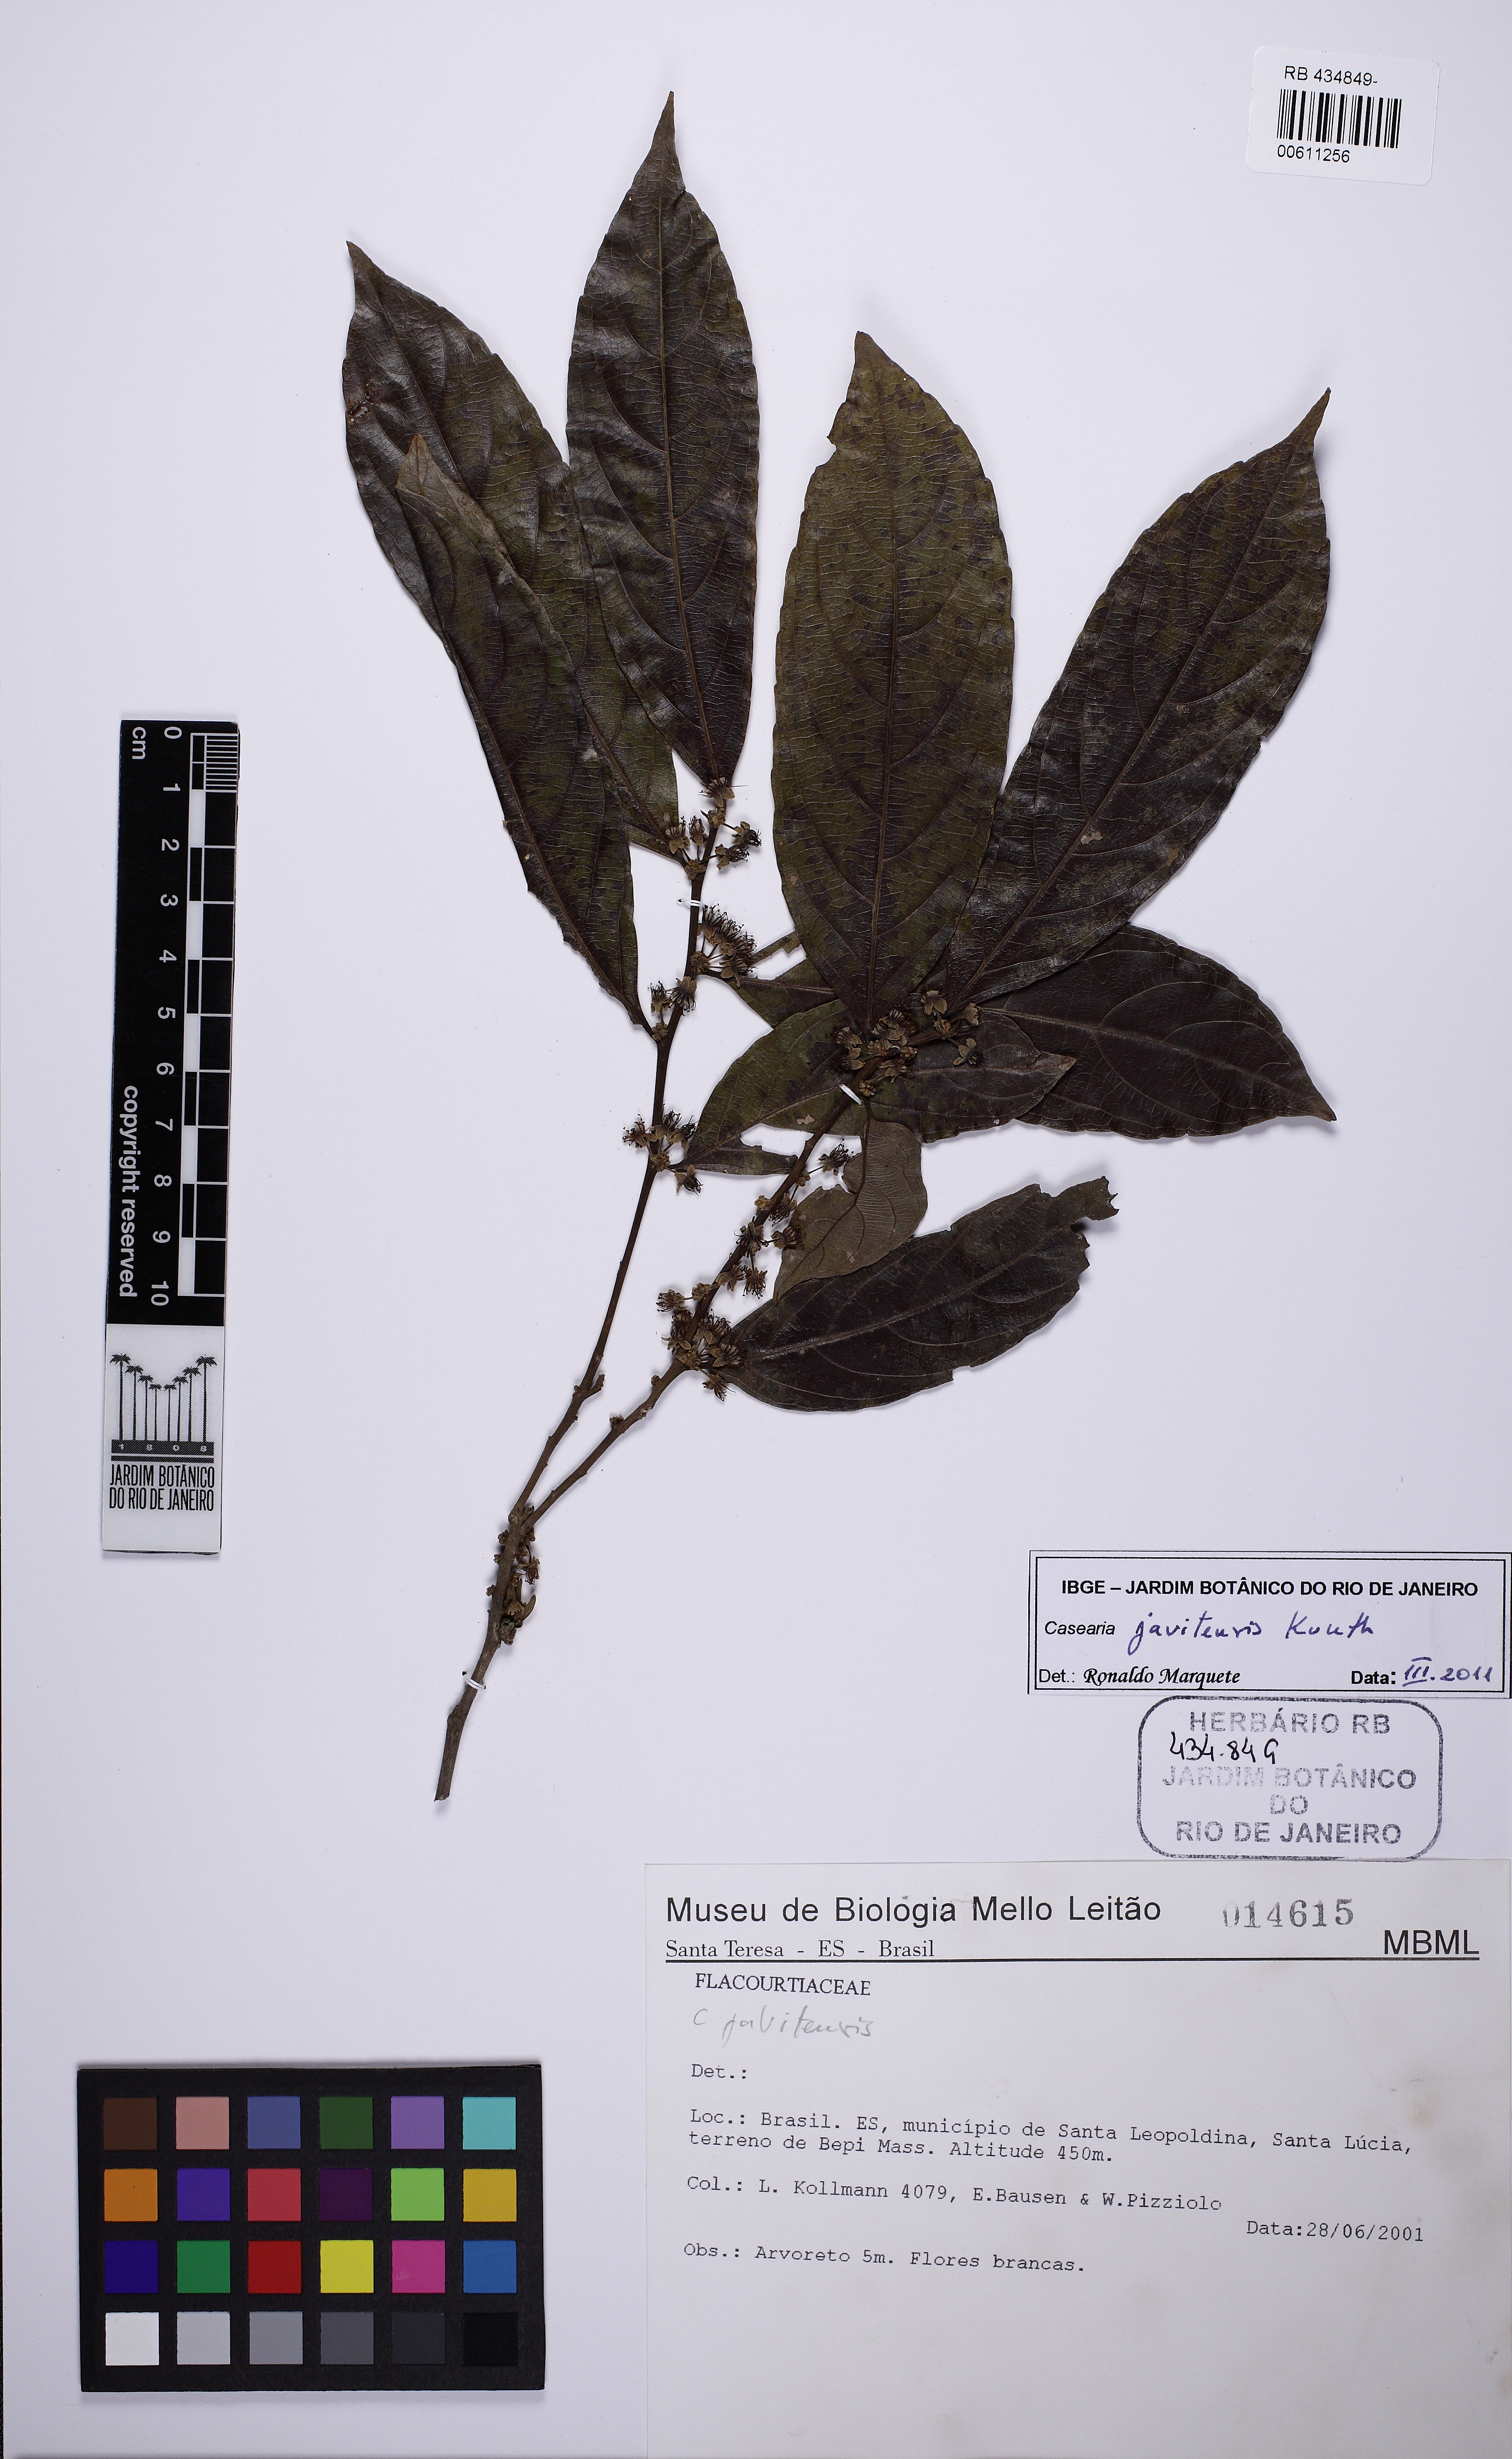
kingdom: Plantae
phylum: Tracheophyta
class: Magnoliopsida
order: Malpighiales
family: Salicaceae
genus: Piparea
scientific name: Piparea multiflora
